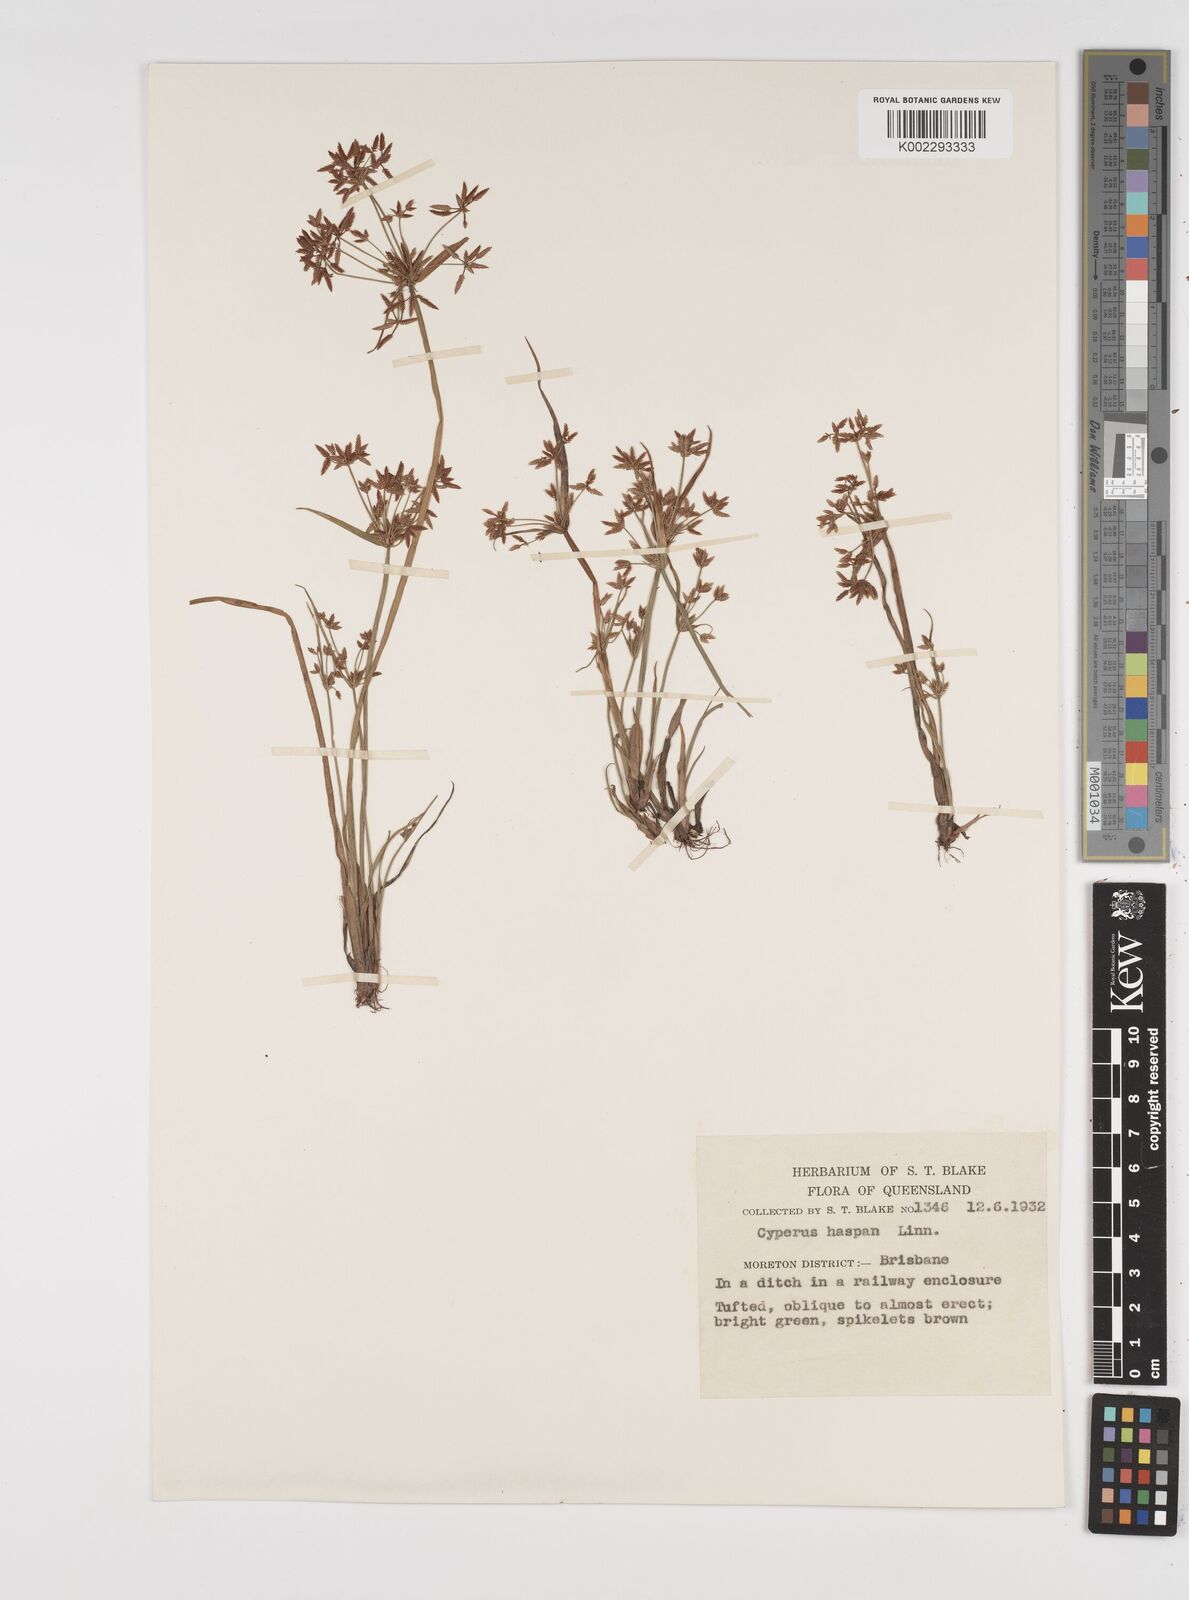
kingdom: Plantae
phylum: Tracheophyta
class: Liliopsida
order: Poales
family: Cyperaceae
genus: Cyperus
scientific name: Cyperus haspan
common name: Haspan flatsedge
